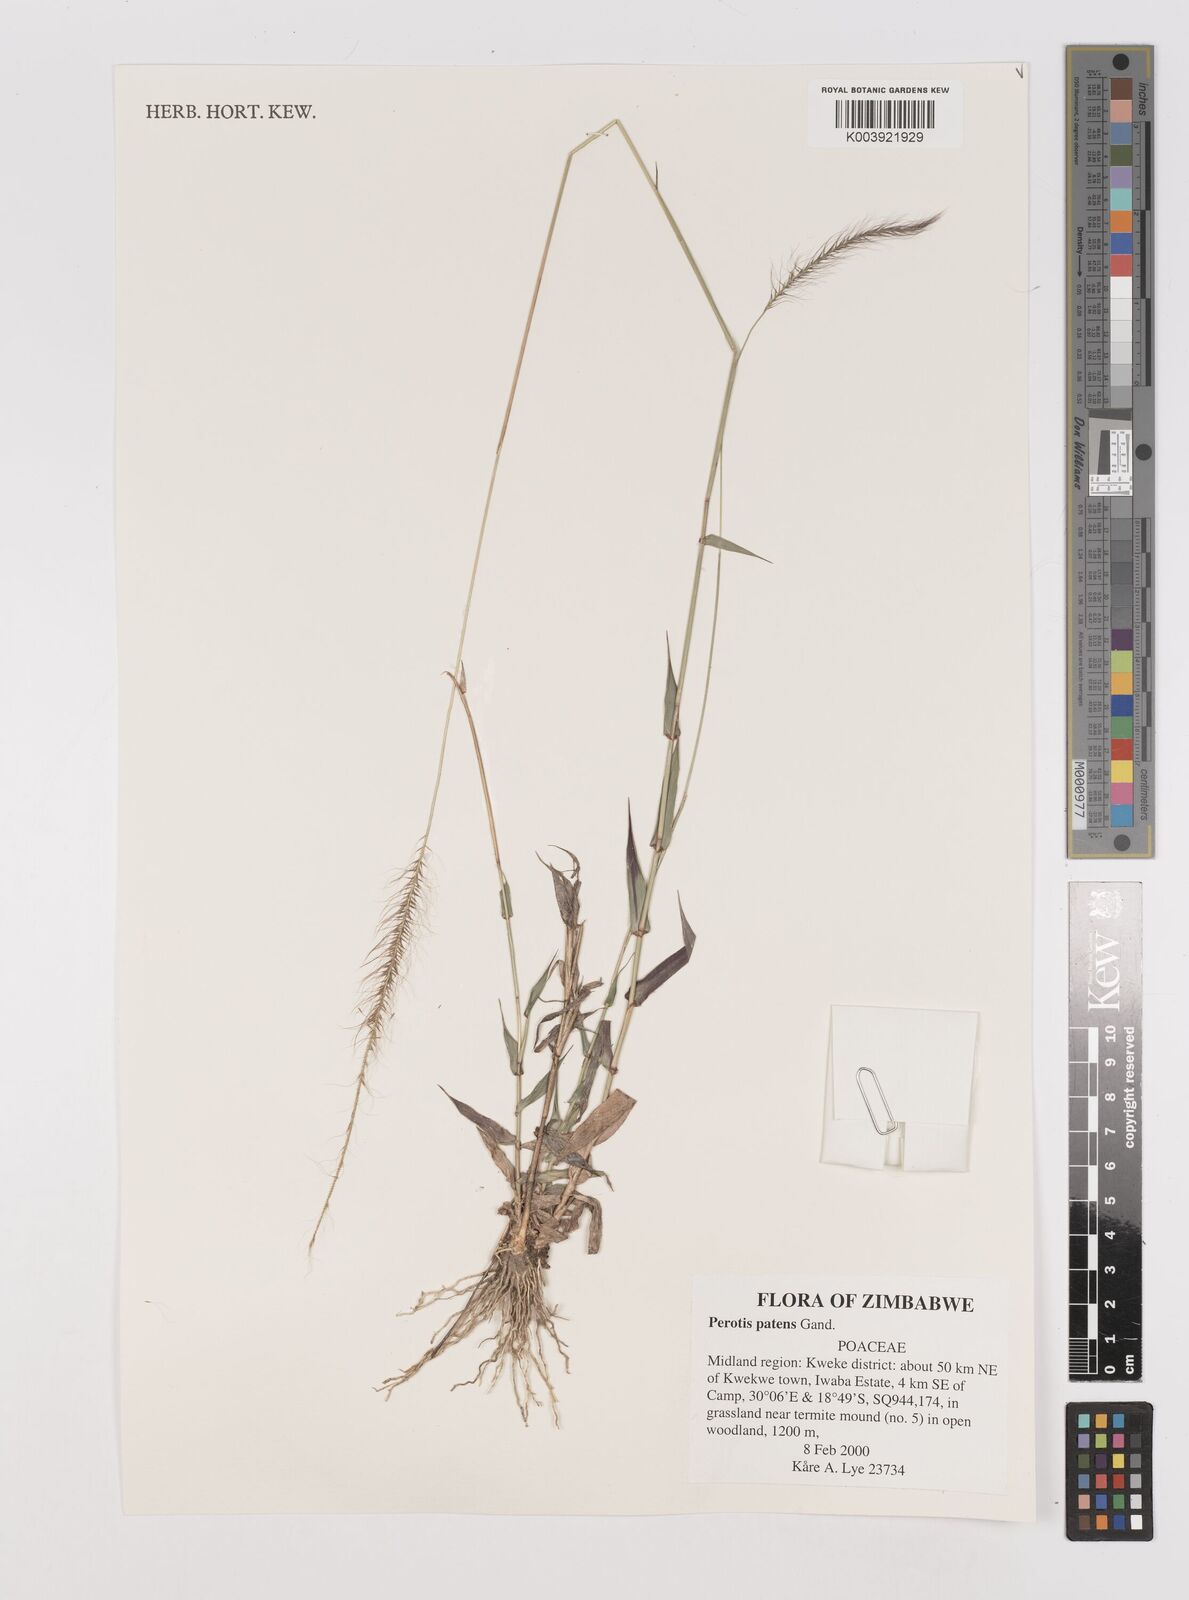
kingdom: Plantae
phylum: Tracheophyta
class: Liliopsida
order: Poales
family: Poaceae
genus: Perotis
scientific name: Perotis patens
